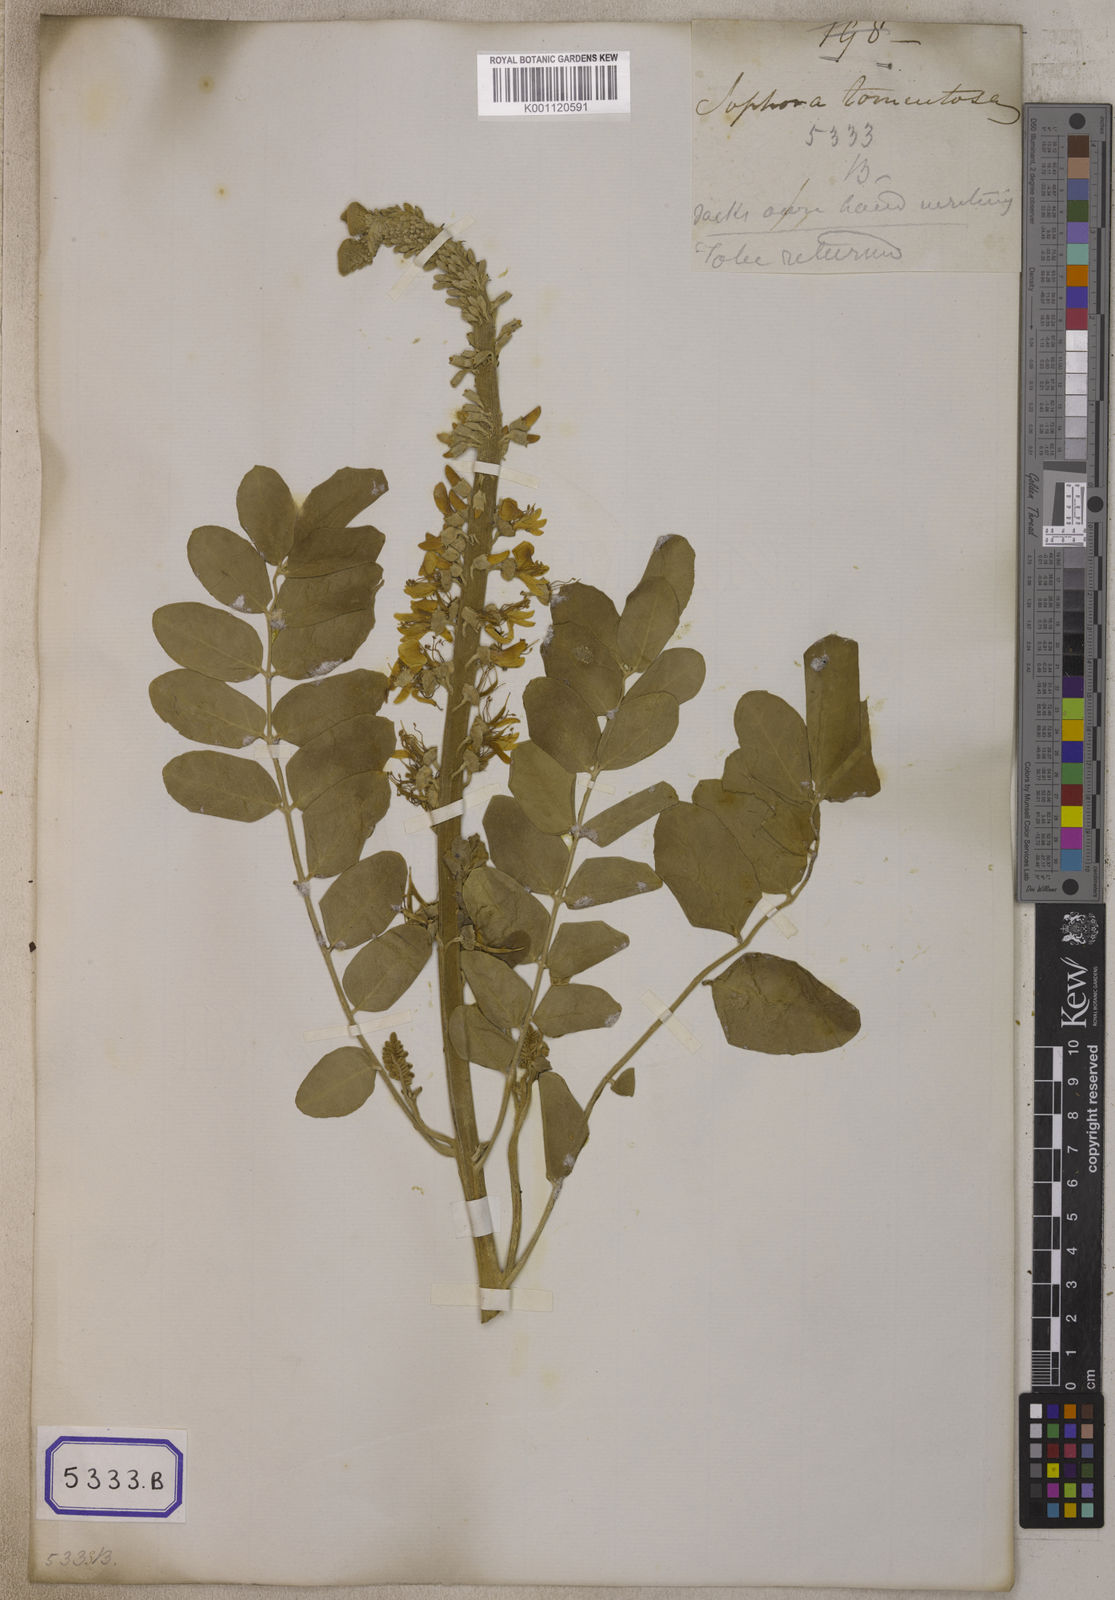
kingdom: Plantae
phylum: Tracheophyta
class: Magnoliopsida
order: Fabales
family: Fabaceae
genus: Sophora
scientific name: Sophora tomentosa
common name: Yellow necklacepod
